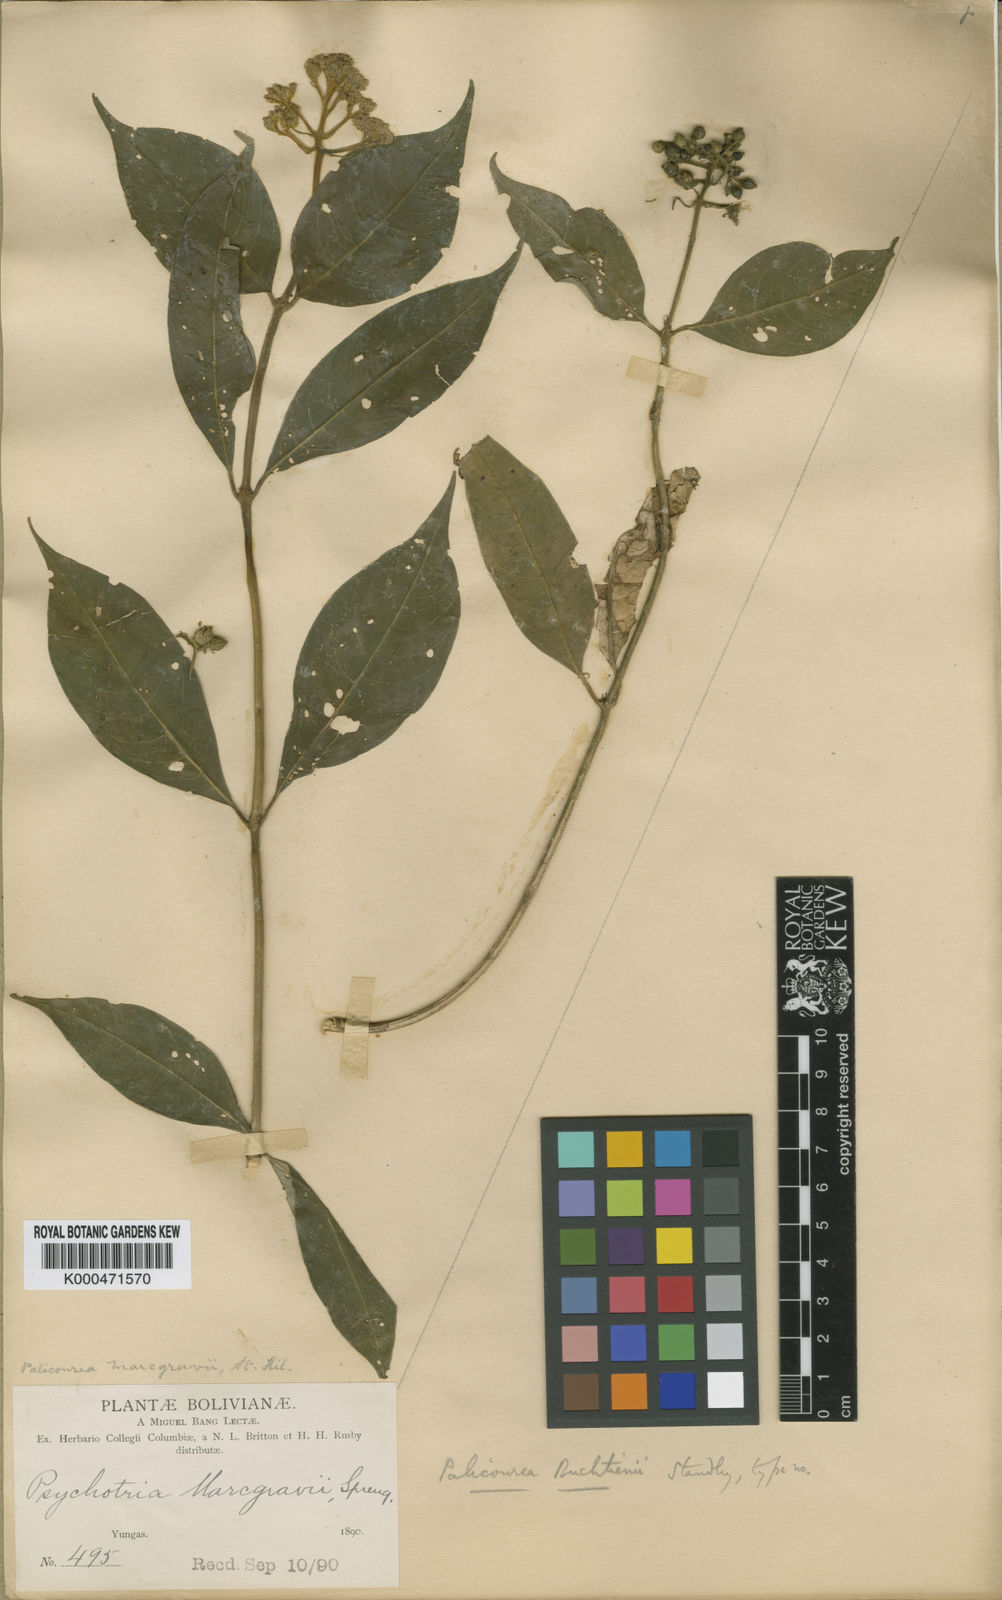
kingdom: Plantae
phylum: Tracheophyta
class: Magnoliopsida
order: Gentianales
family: Rubiaceae
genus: Palicourea
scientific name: Palicourea buchtienii
